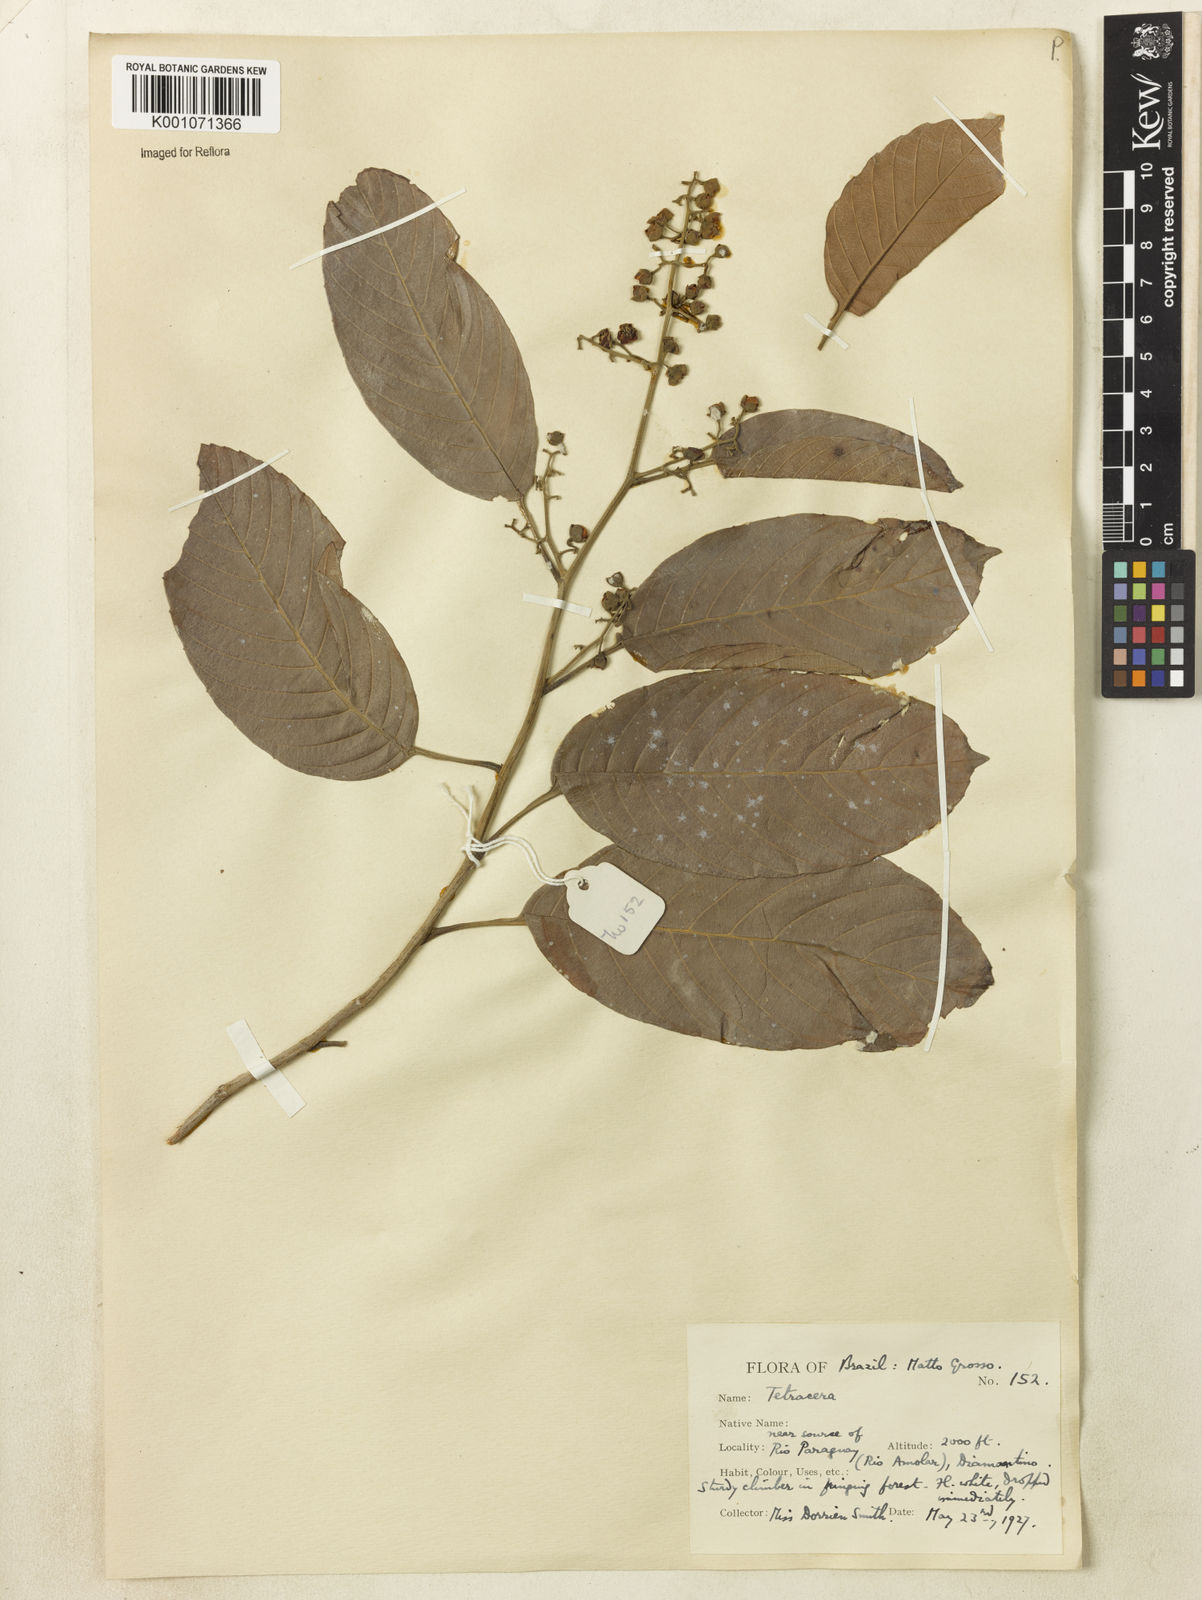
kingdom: Plantae
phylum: Tracheophyta
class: Magnoliopsida
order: Dilleniales
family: Dilleniaceae
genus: Tetracera
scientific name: Tetracera
